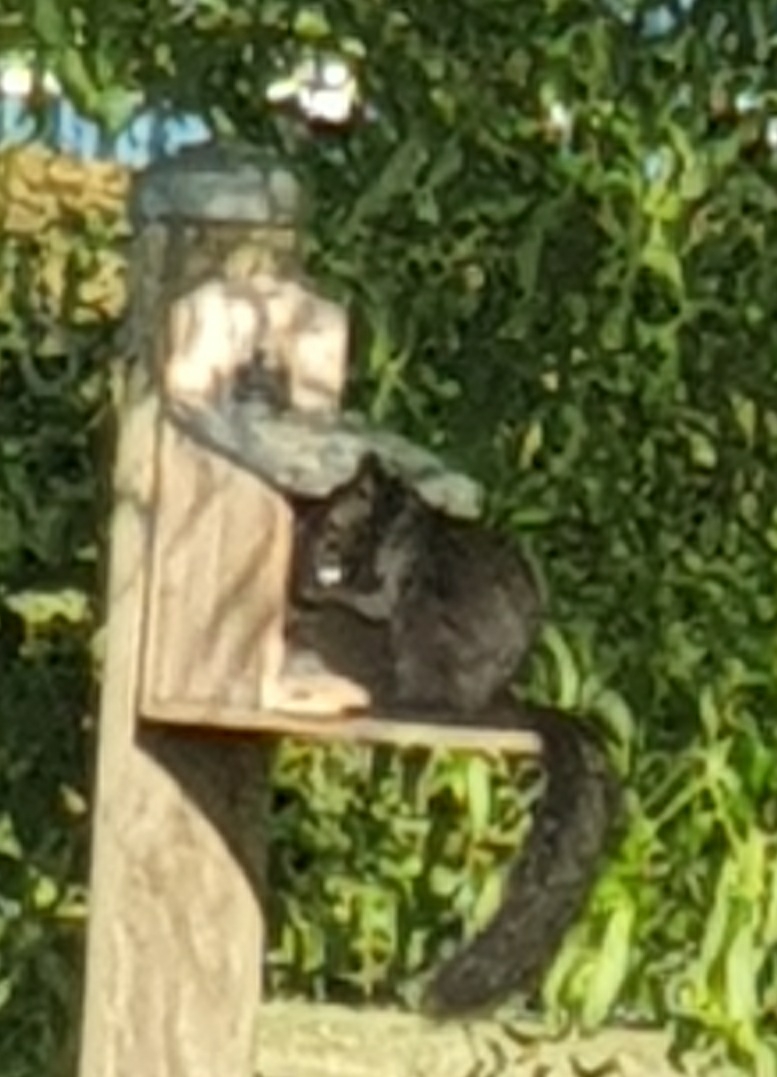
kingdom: Animalia
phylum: Chordata
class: Mammalia
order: Rodentia
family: Sciuridae
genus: Sciurus
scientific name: Sciurus vulgaris
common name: Egern
